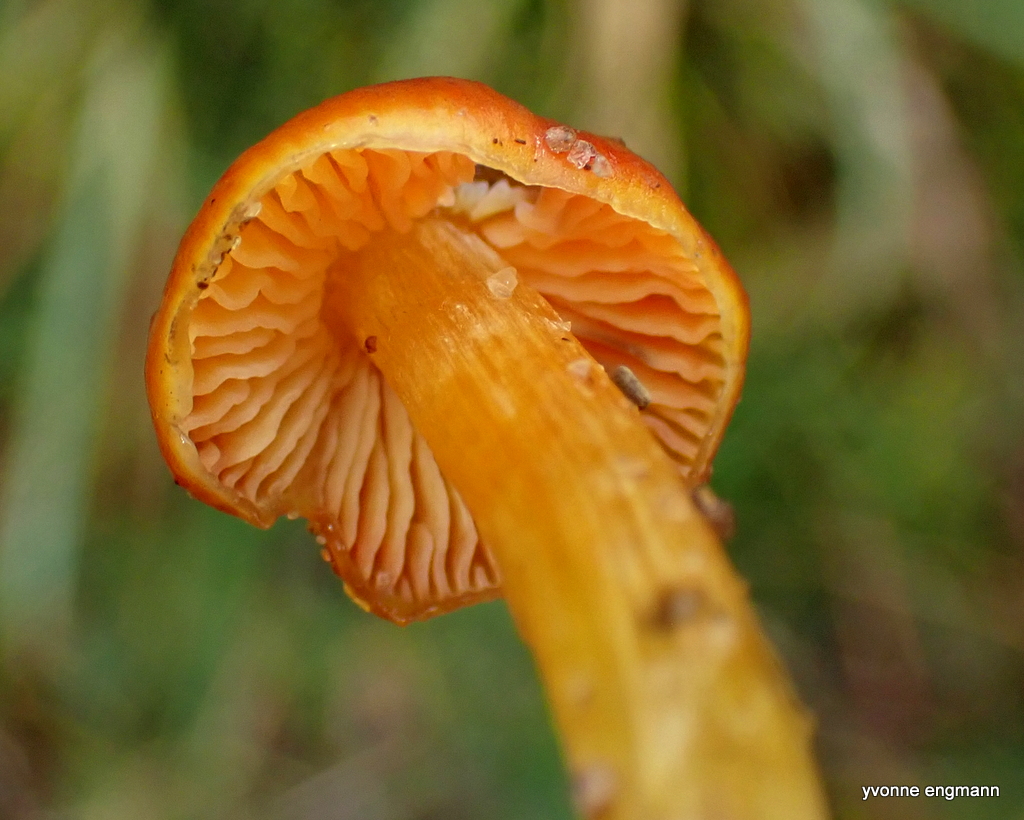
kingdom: Fungi
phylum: Basidiomycota
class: Agaricomycetes
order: Agaricales
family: Hygrophoraceae
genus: Hygrocybe
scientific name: Hygrocybe conica
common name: kegle-vokshat
